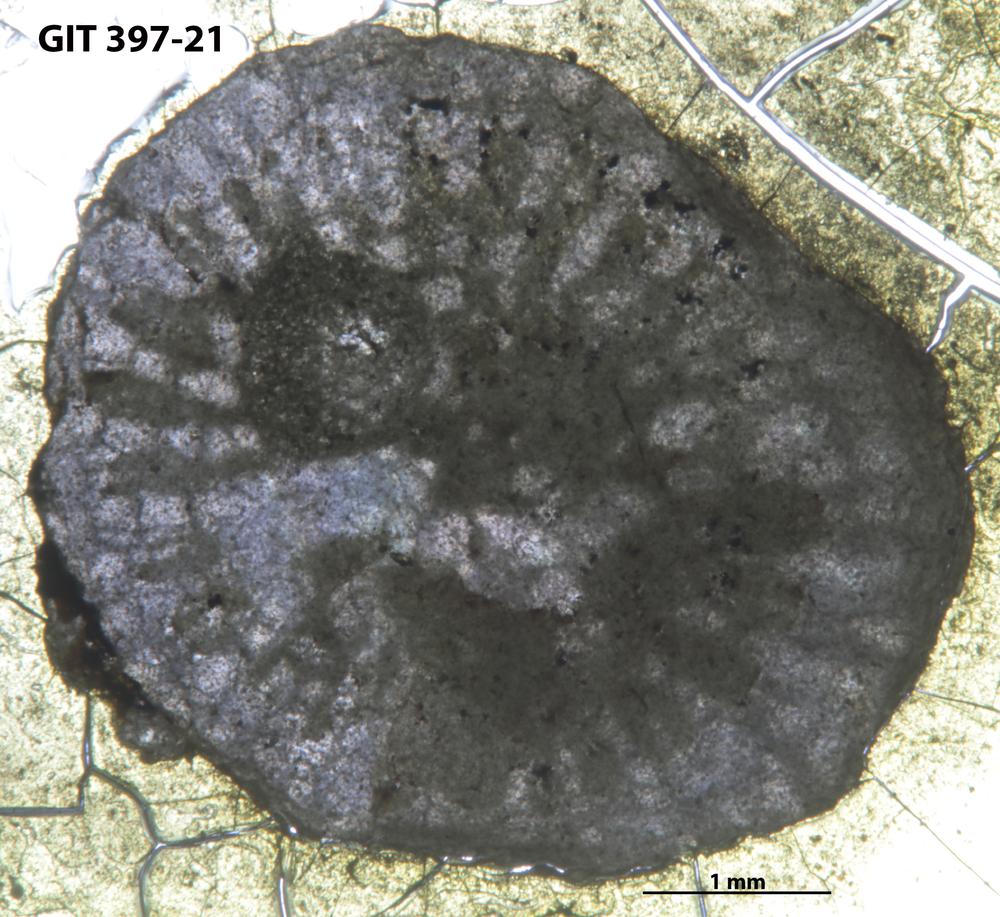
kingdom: Animalia
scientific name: Animalia
